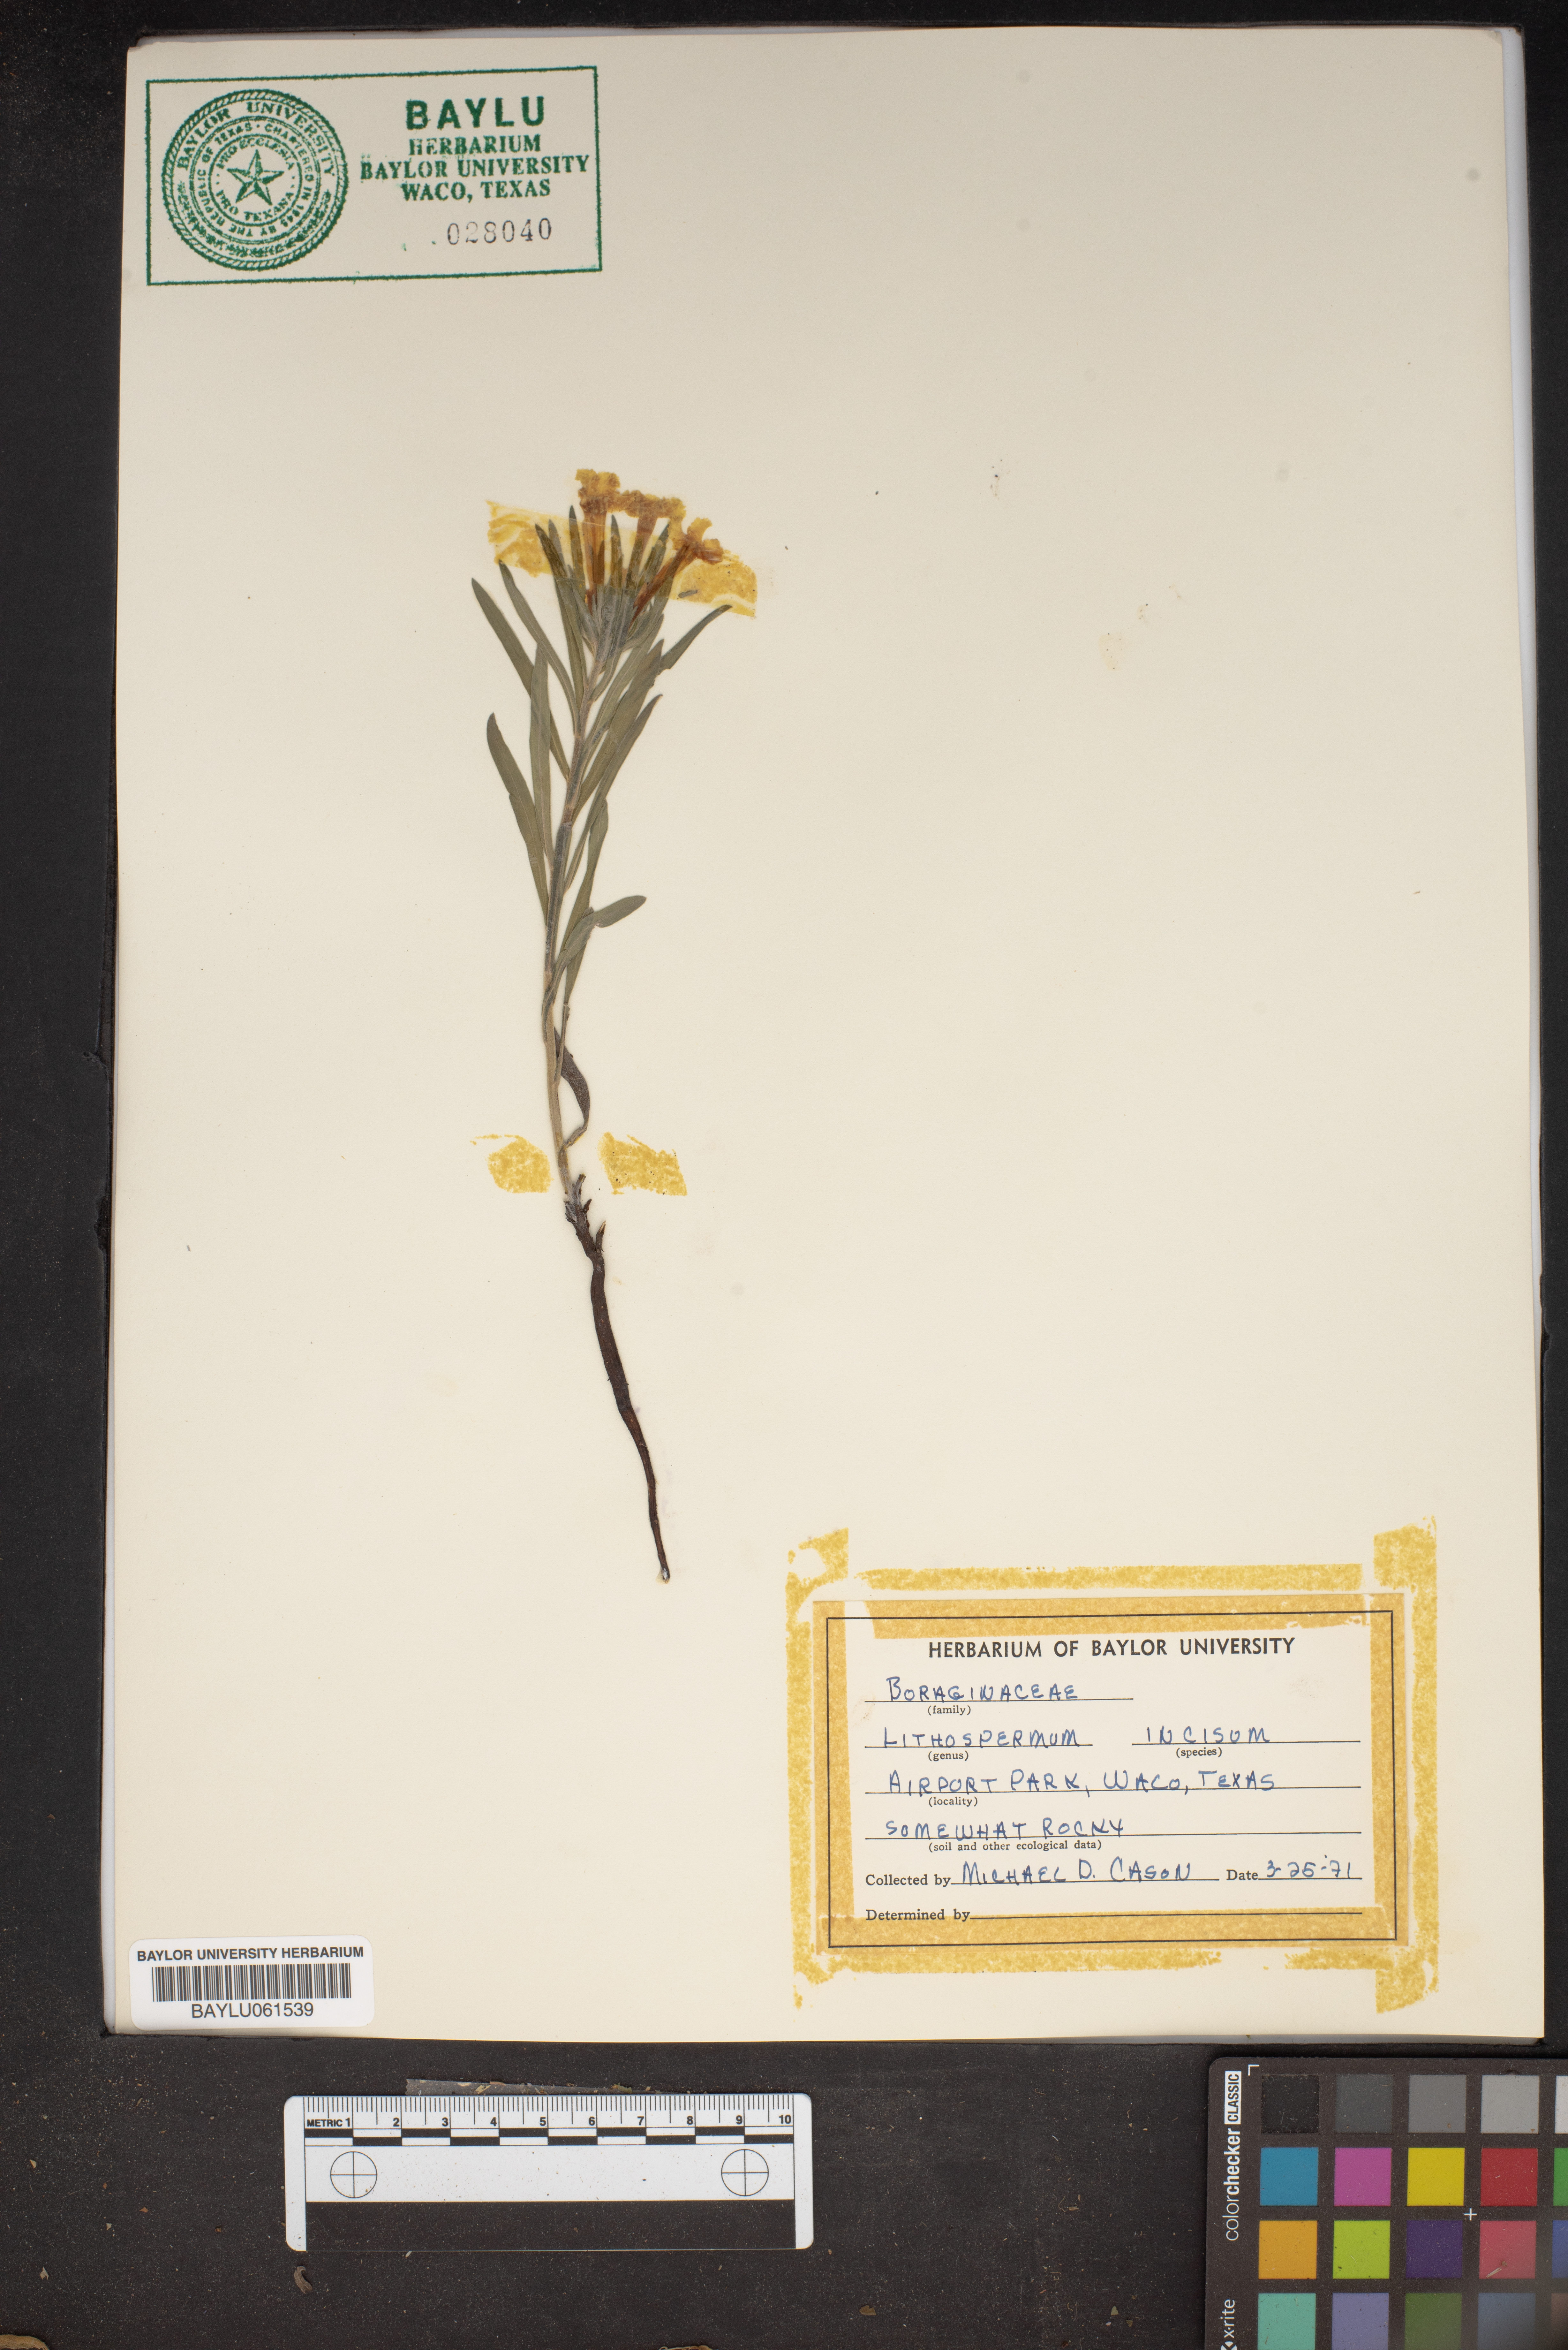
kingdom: Plantae
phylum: Tracheophyta
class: Magnoliopsida
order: Boraginales
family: Boraginaceae
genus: Lithospermum
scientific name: Lithospermum incisum
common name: Fringed gromwell
